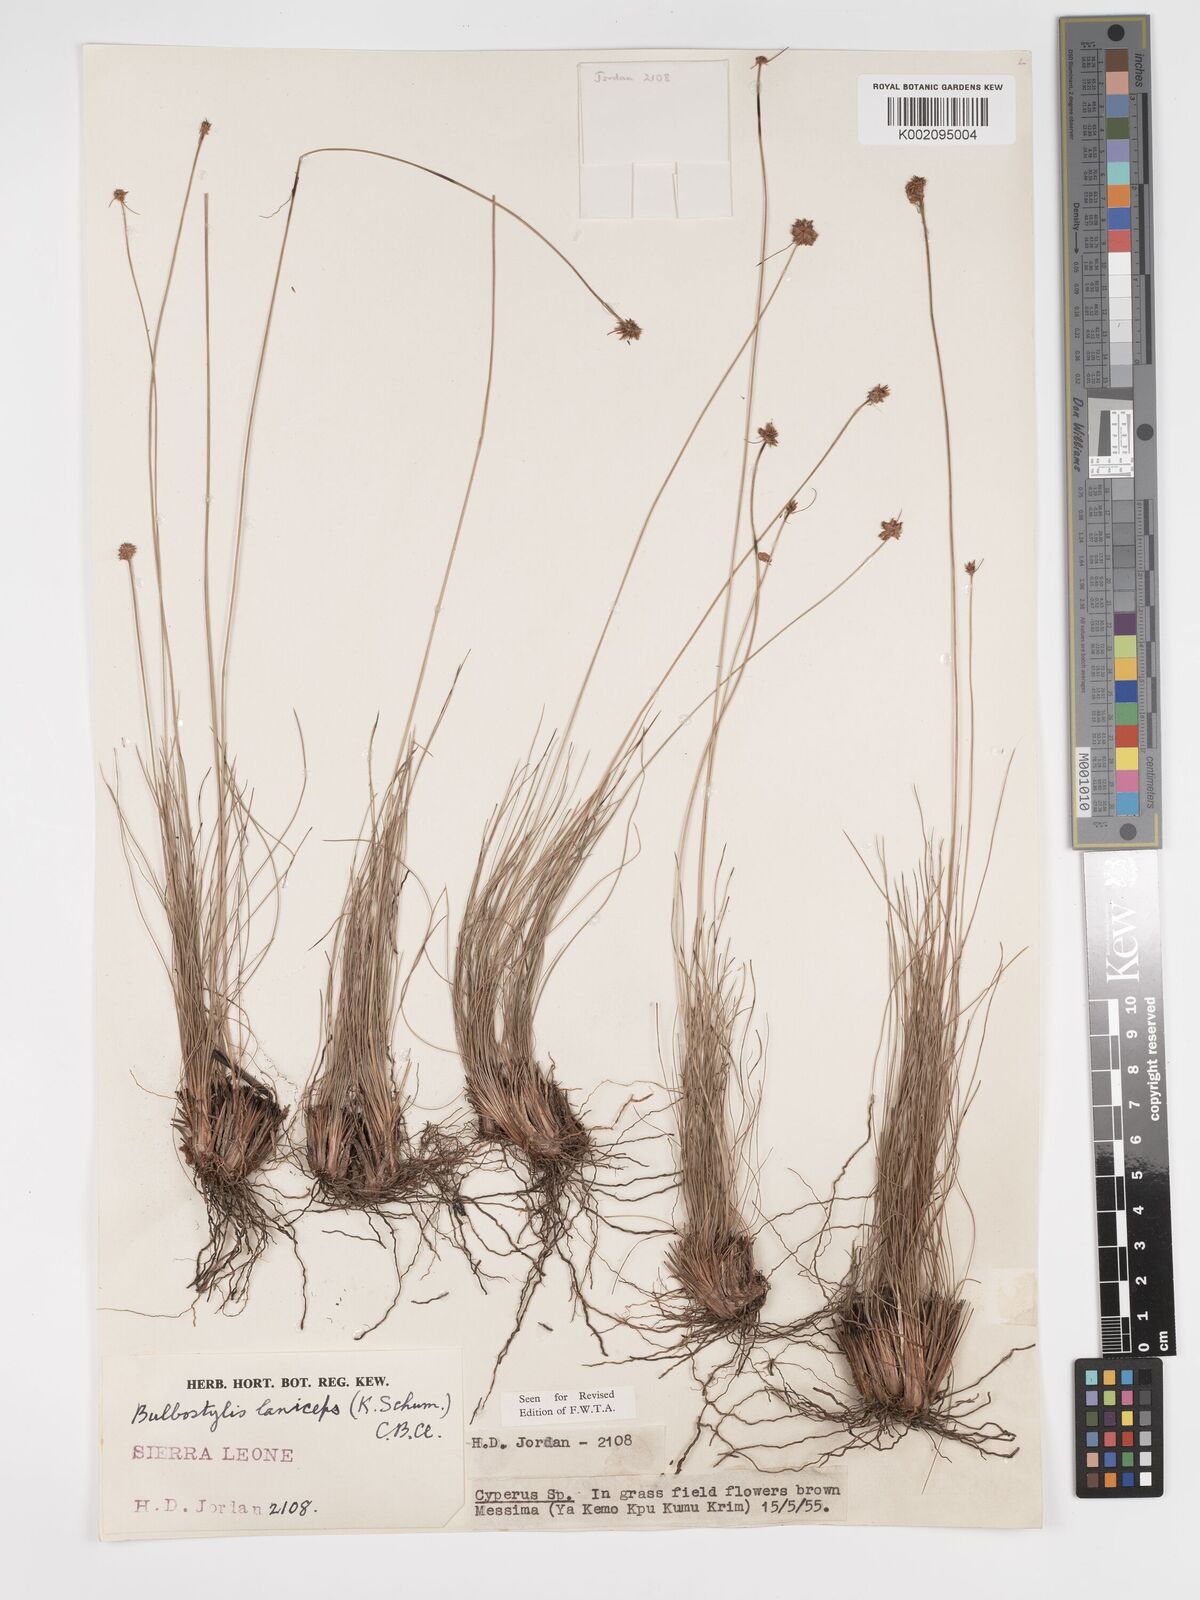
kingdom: Plantae
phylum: Tracheophyta
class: Liliopsida
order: Poales
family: Cyperaceae
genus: Bulbostylis
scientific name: Bulbostylis laniceps
